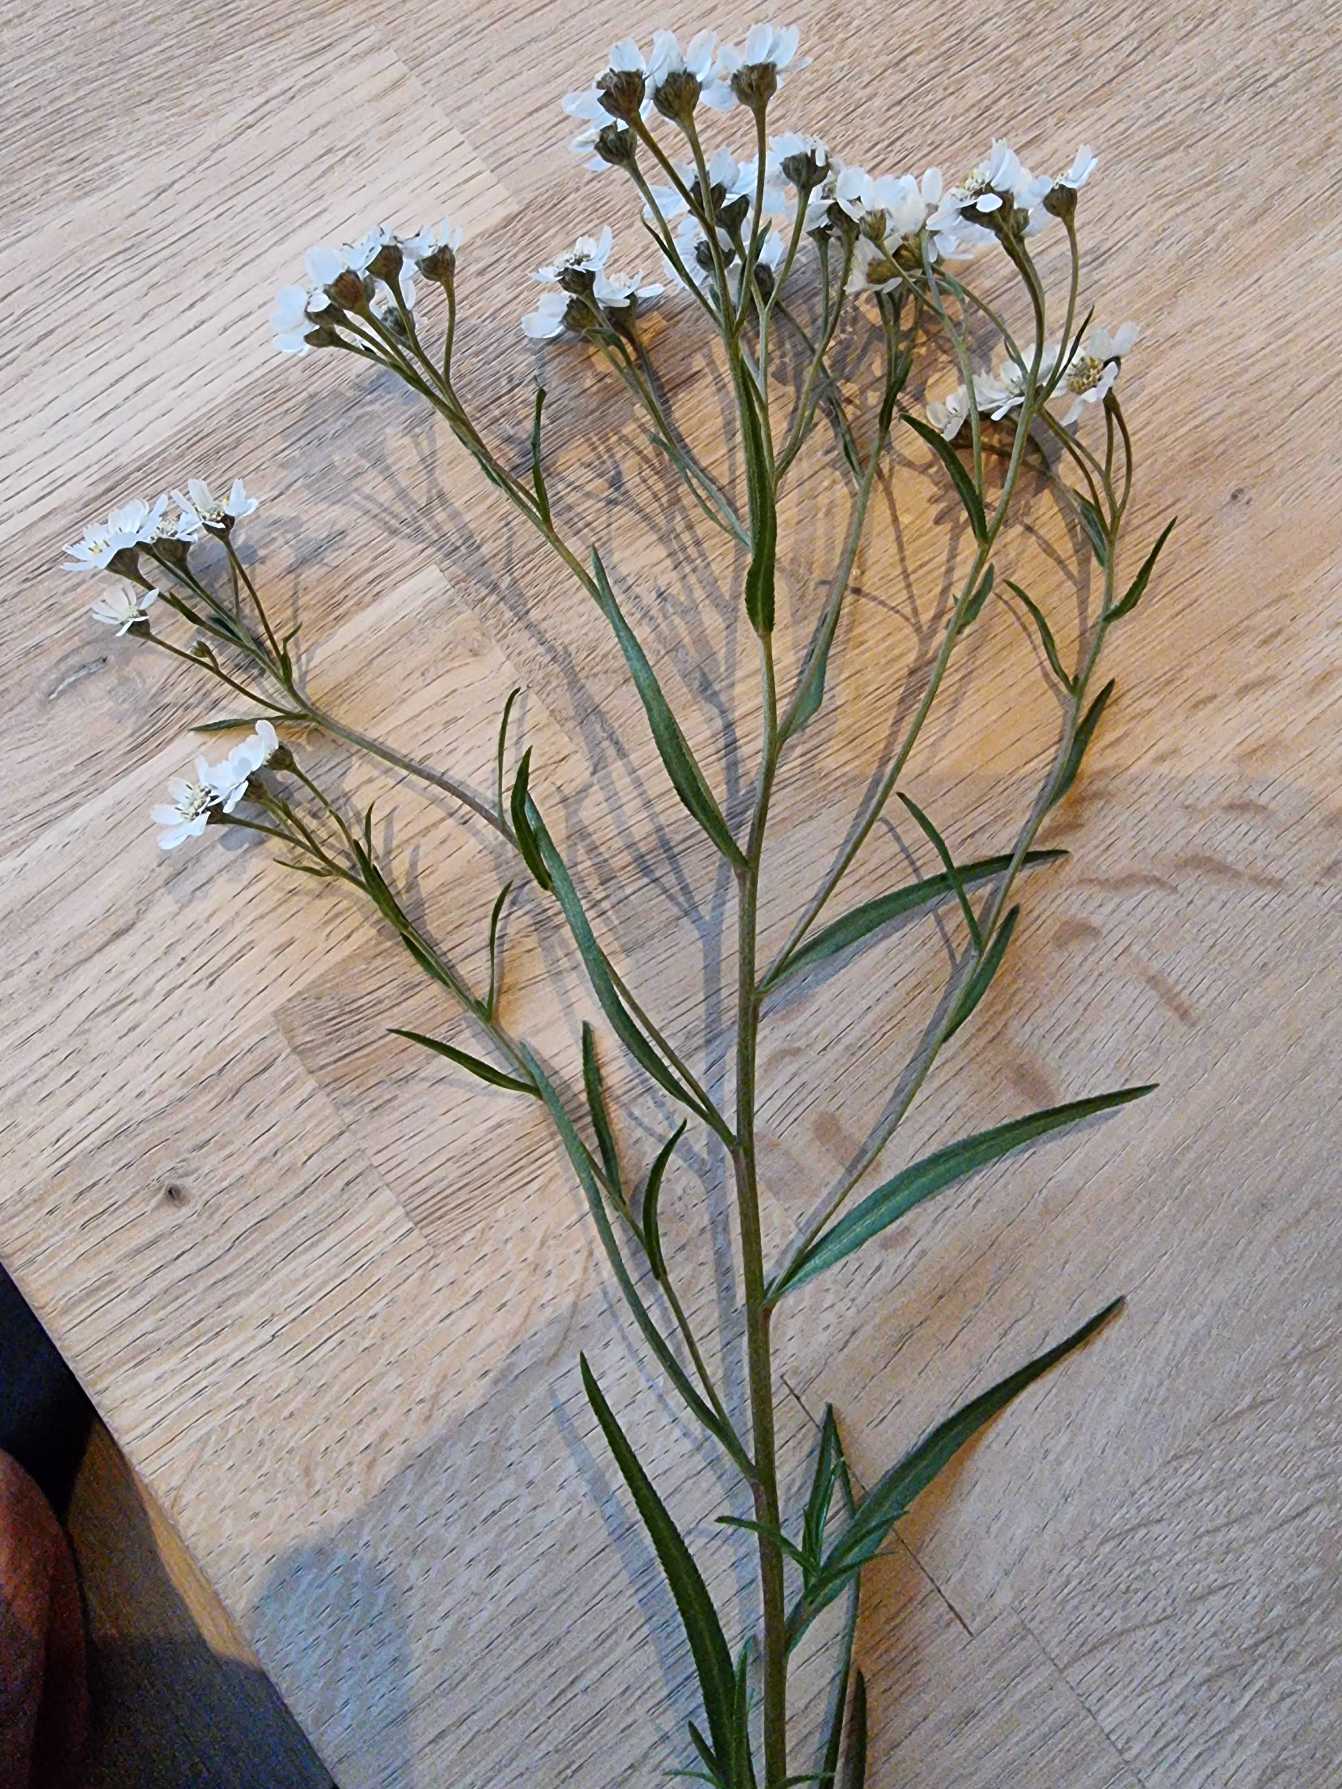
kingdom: Plantae
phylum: Tracheophyta
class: Magnoliopsida
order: Asterales
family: Asteraceae
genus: Achillea
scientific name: Achillea ptarmica
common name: Nyse-røllike
